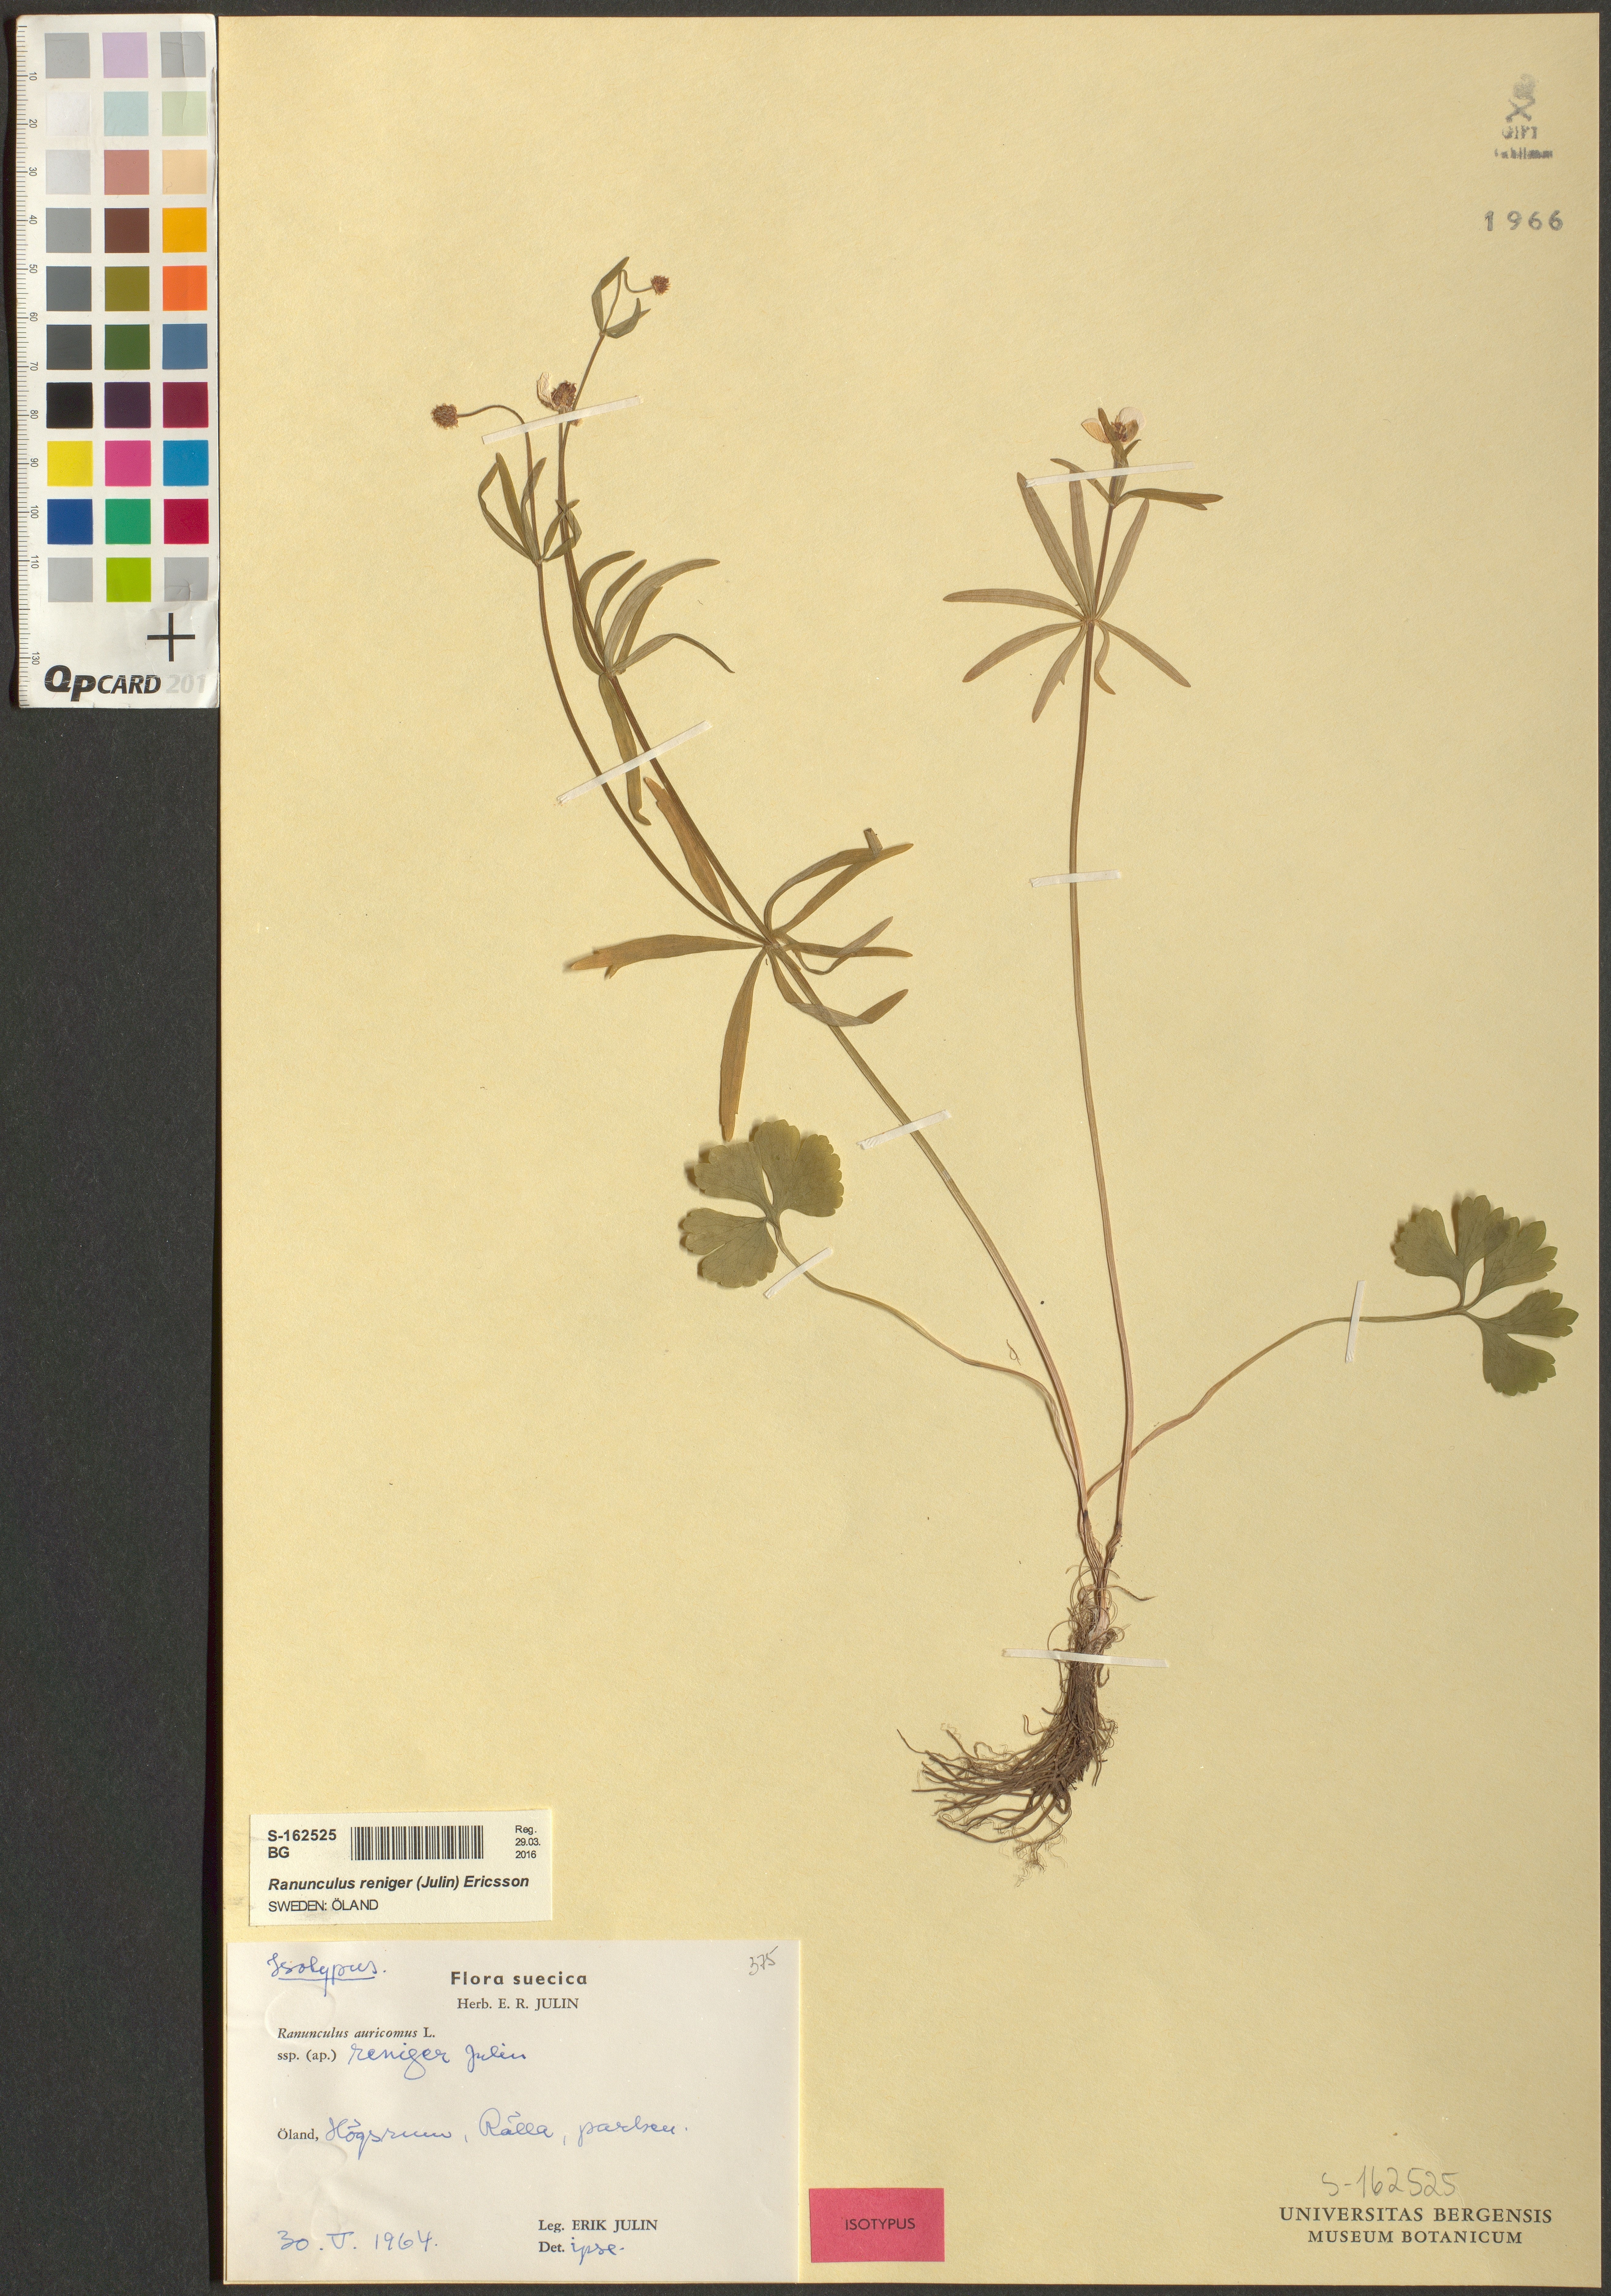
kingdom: Plantae
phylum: Tracheophyta
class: Magnoliopsida
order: Ranunculales
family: Ranunculaceae
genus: Ranunculus
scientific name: Ranunculus reniger
